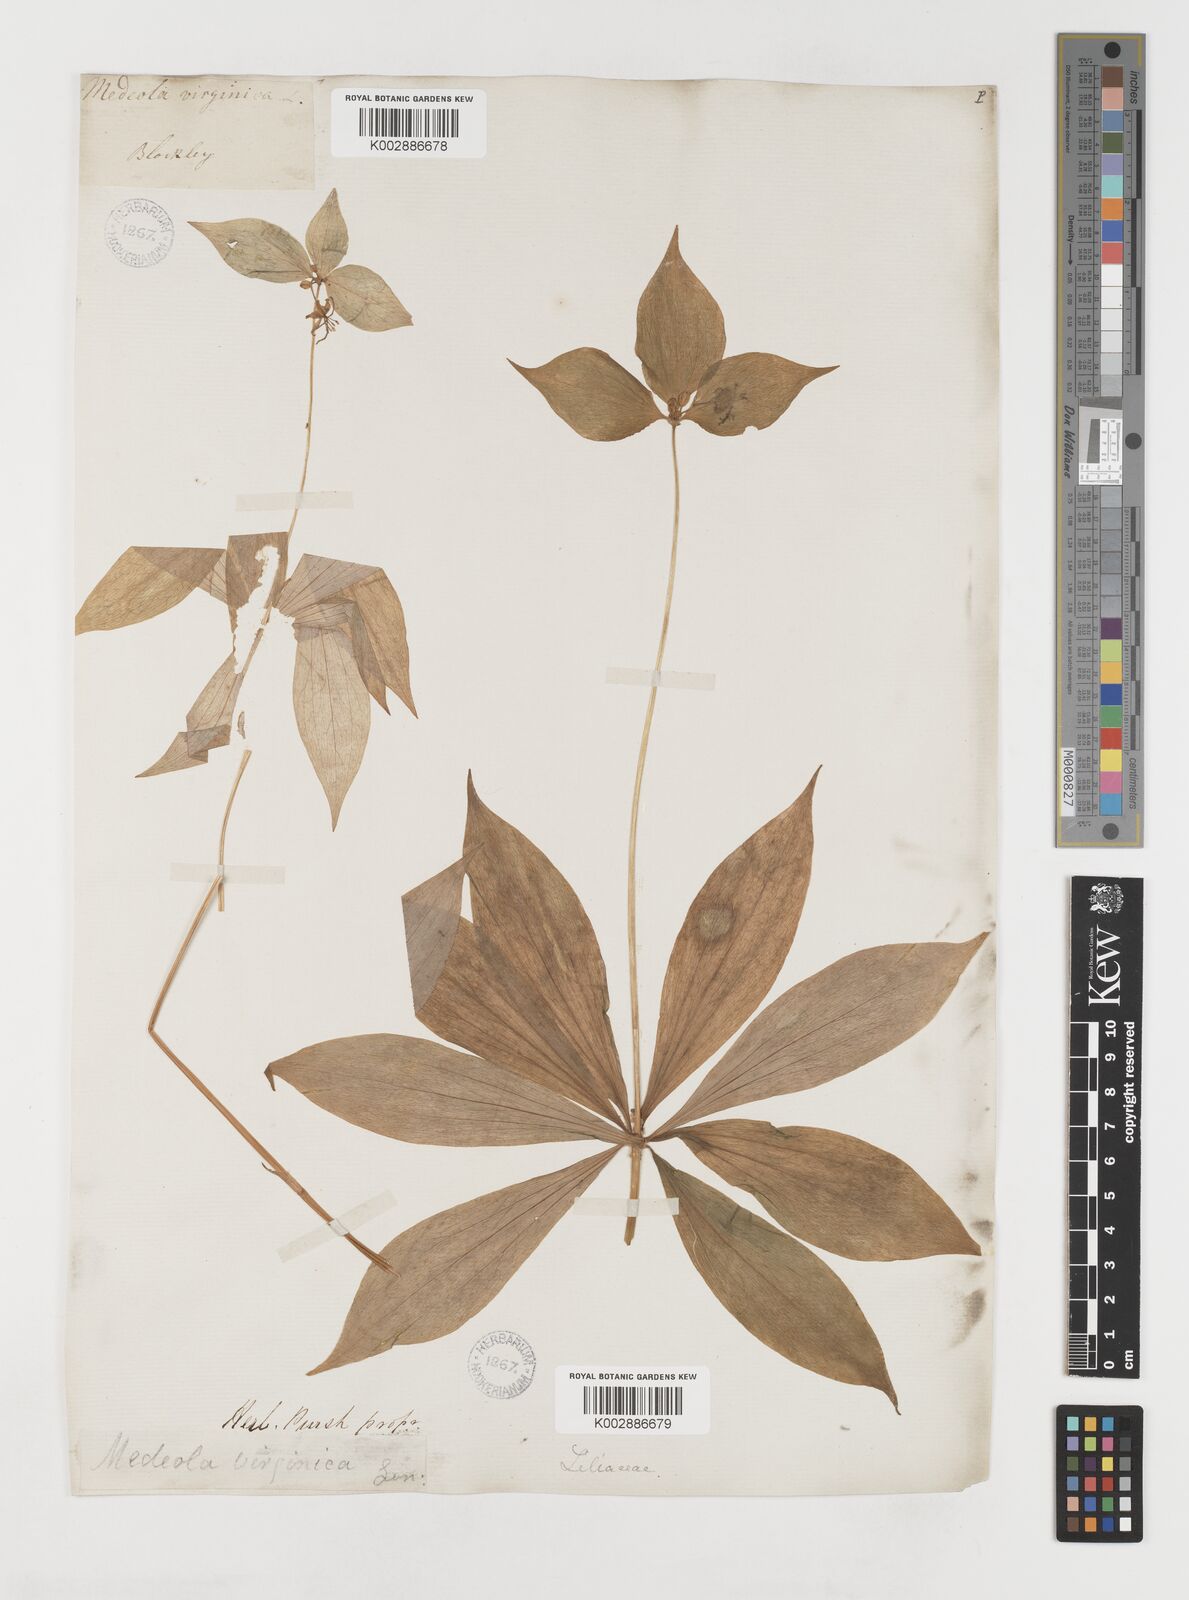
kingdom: Plantae
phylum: Tracheophyta
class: Liliopsida
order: Liliales
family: Liliaceae
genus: Medeola
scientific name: Medeola virginiana
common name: Indian cucumber-root
